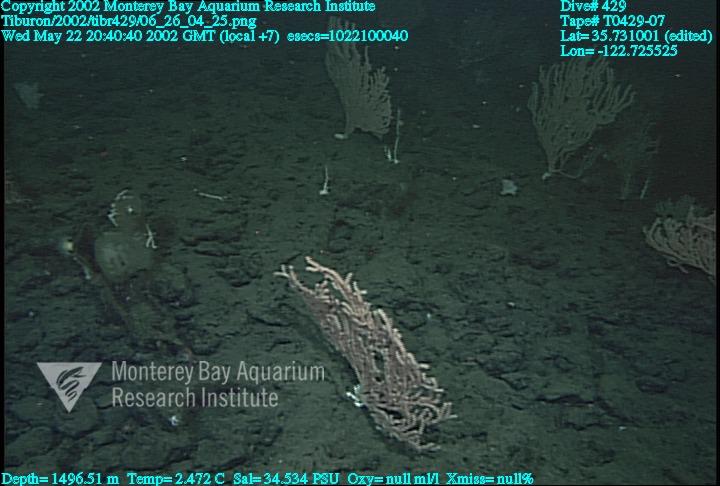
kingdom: Animalia
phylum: Porifera
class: Hexactinellida
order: Sceptrulophora
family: Euretidae
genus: Chonelasma
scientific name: Chonelasma
